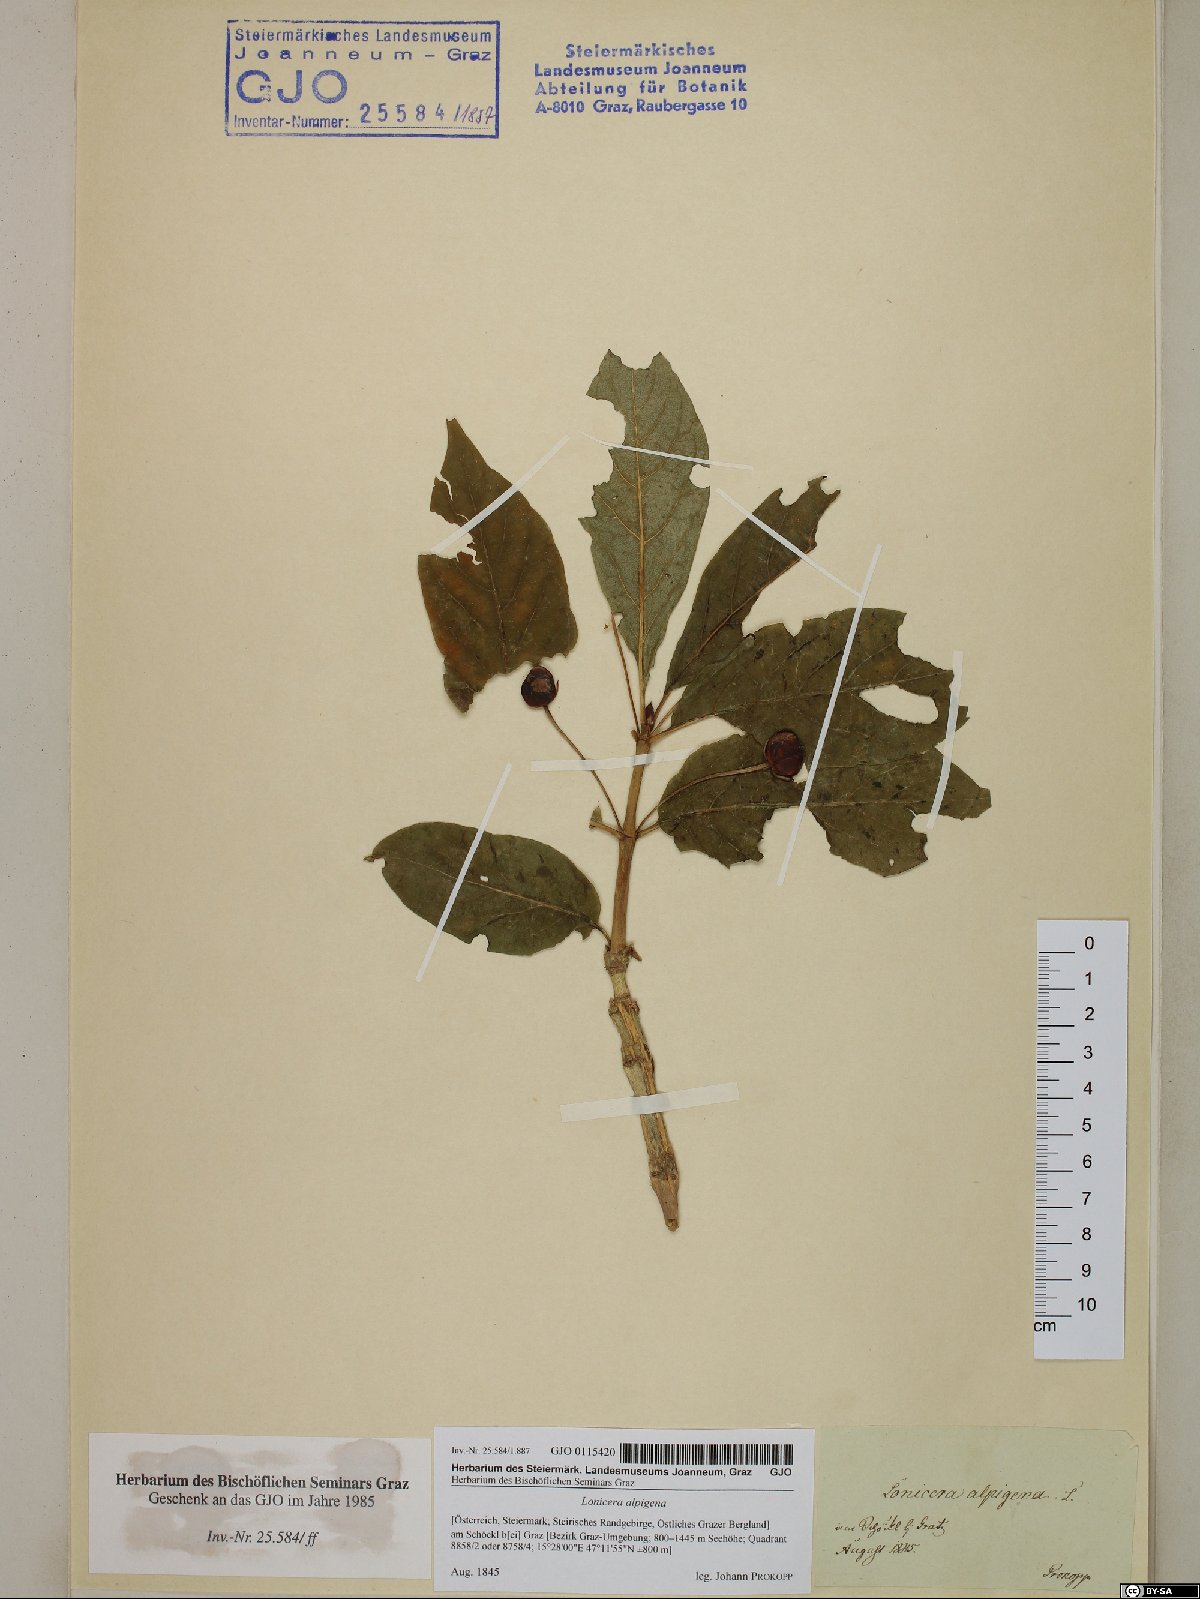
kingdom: Plantae
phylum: Tracheophyta
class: Magnoliopsida
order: Dipsacales
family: Caprifoliaceae
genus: Lonicera
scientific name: Lonicera alpigena
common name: Alpine honeysuckle
